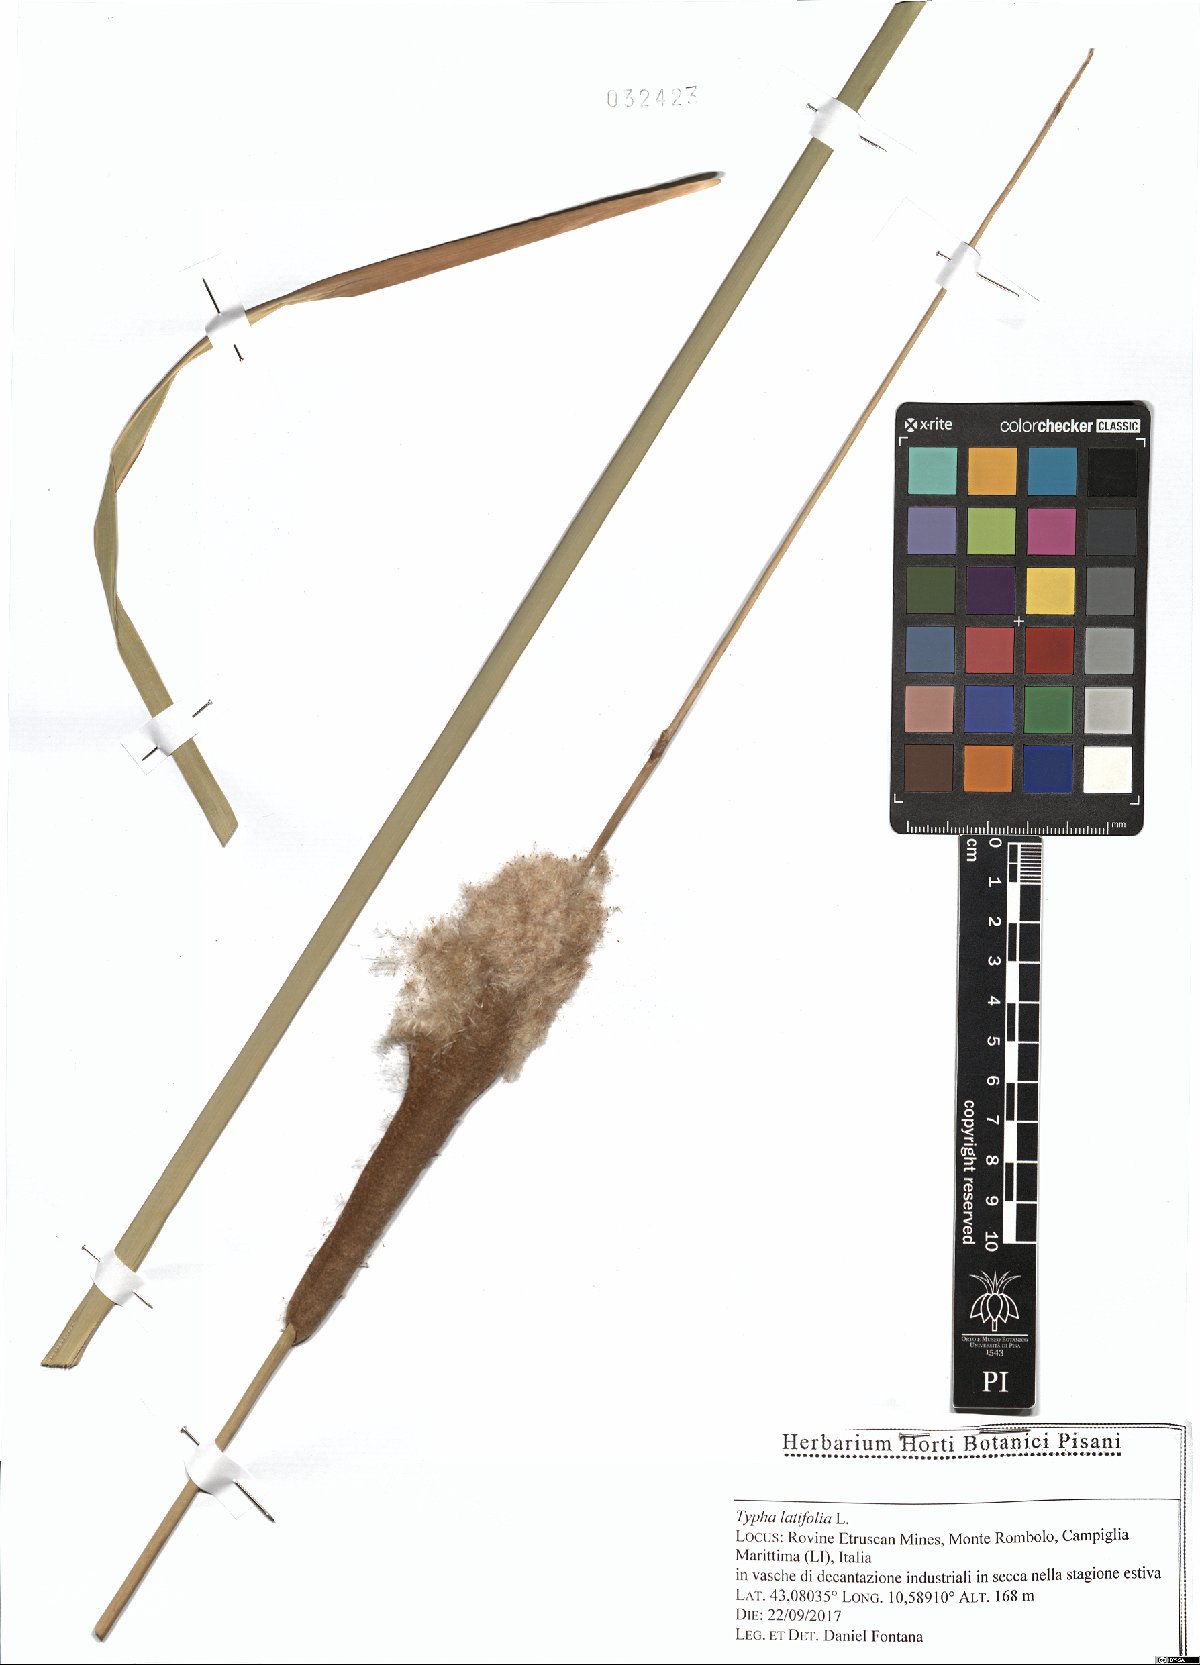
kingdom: Plantae
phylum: Tracheophyta
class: Liliopsida
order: Poales
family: Typhaceae
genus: Typha
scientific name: Typha latifolia
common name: Broadleaf cattail
